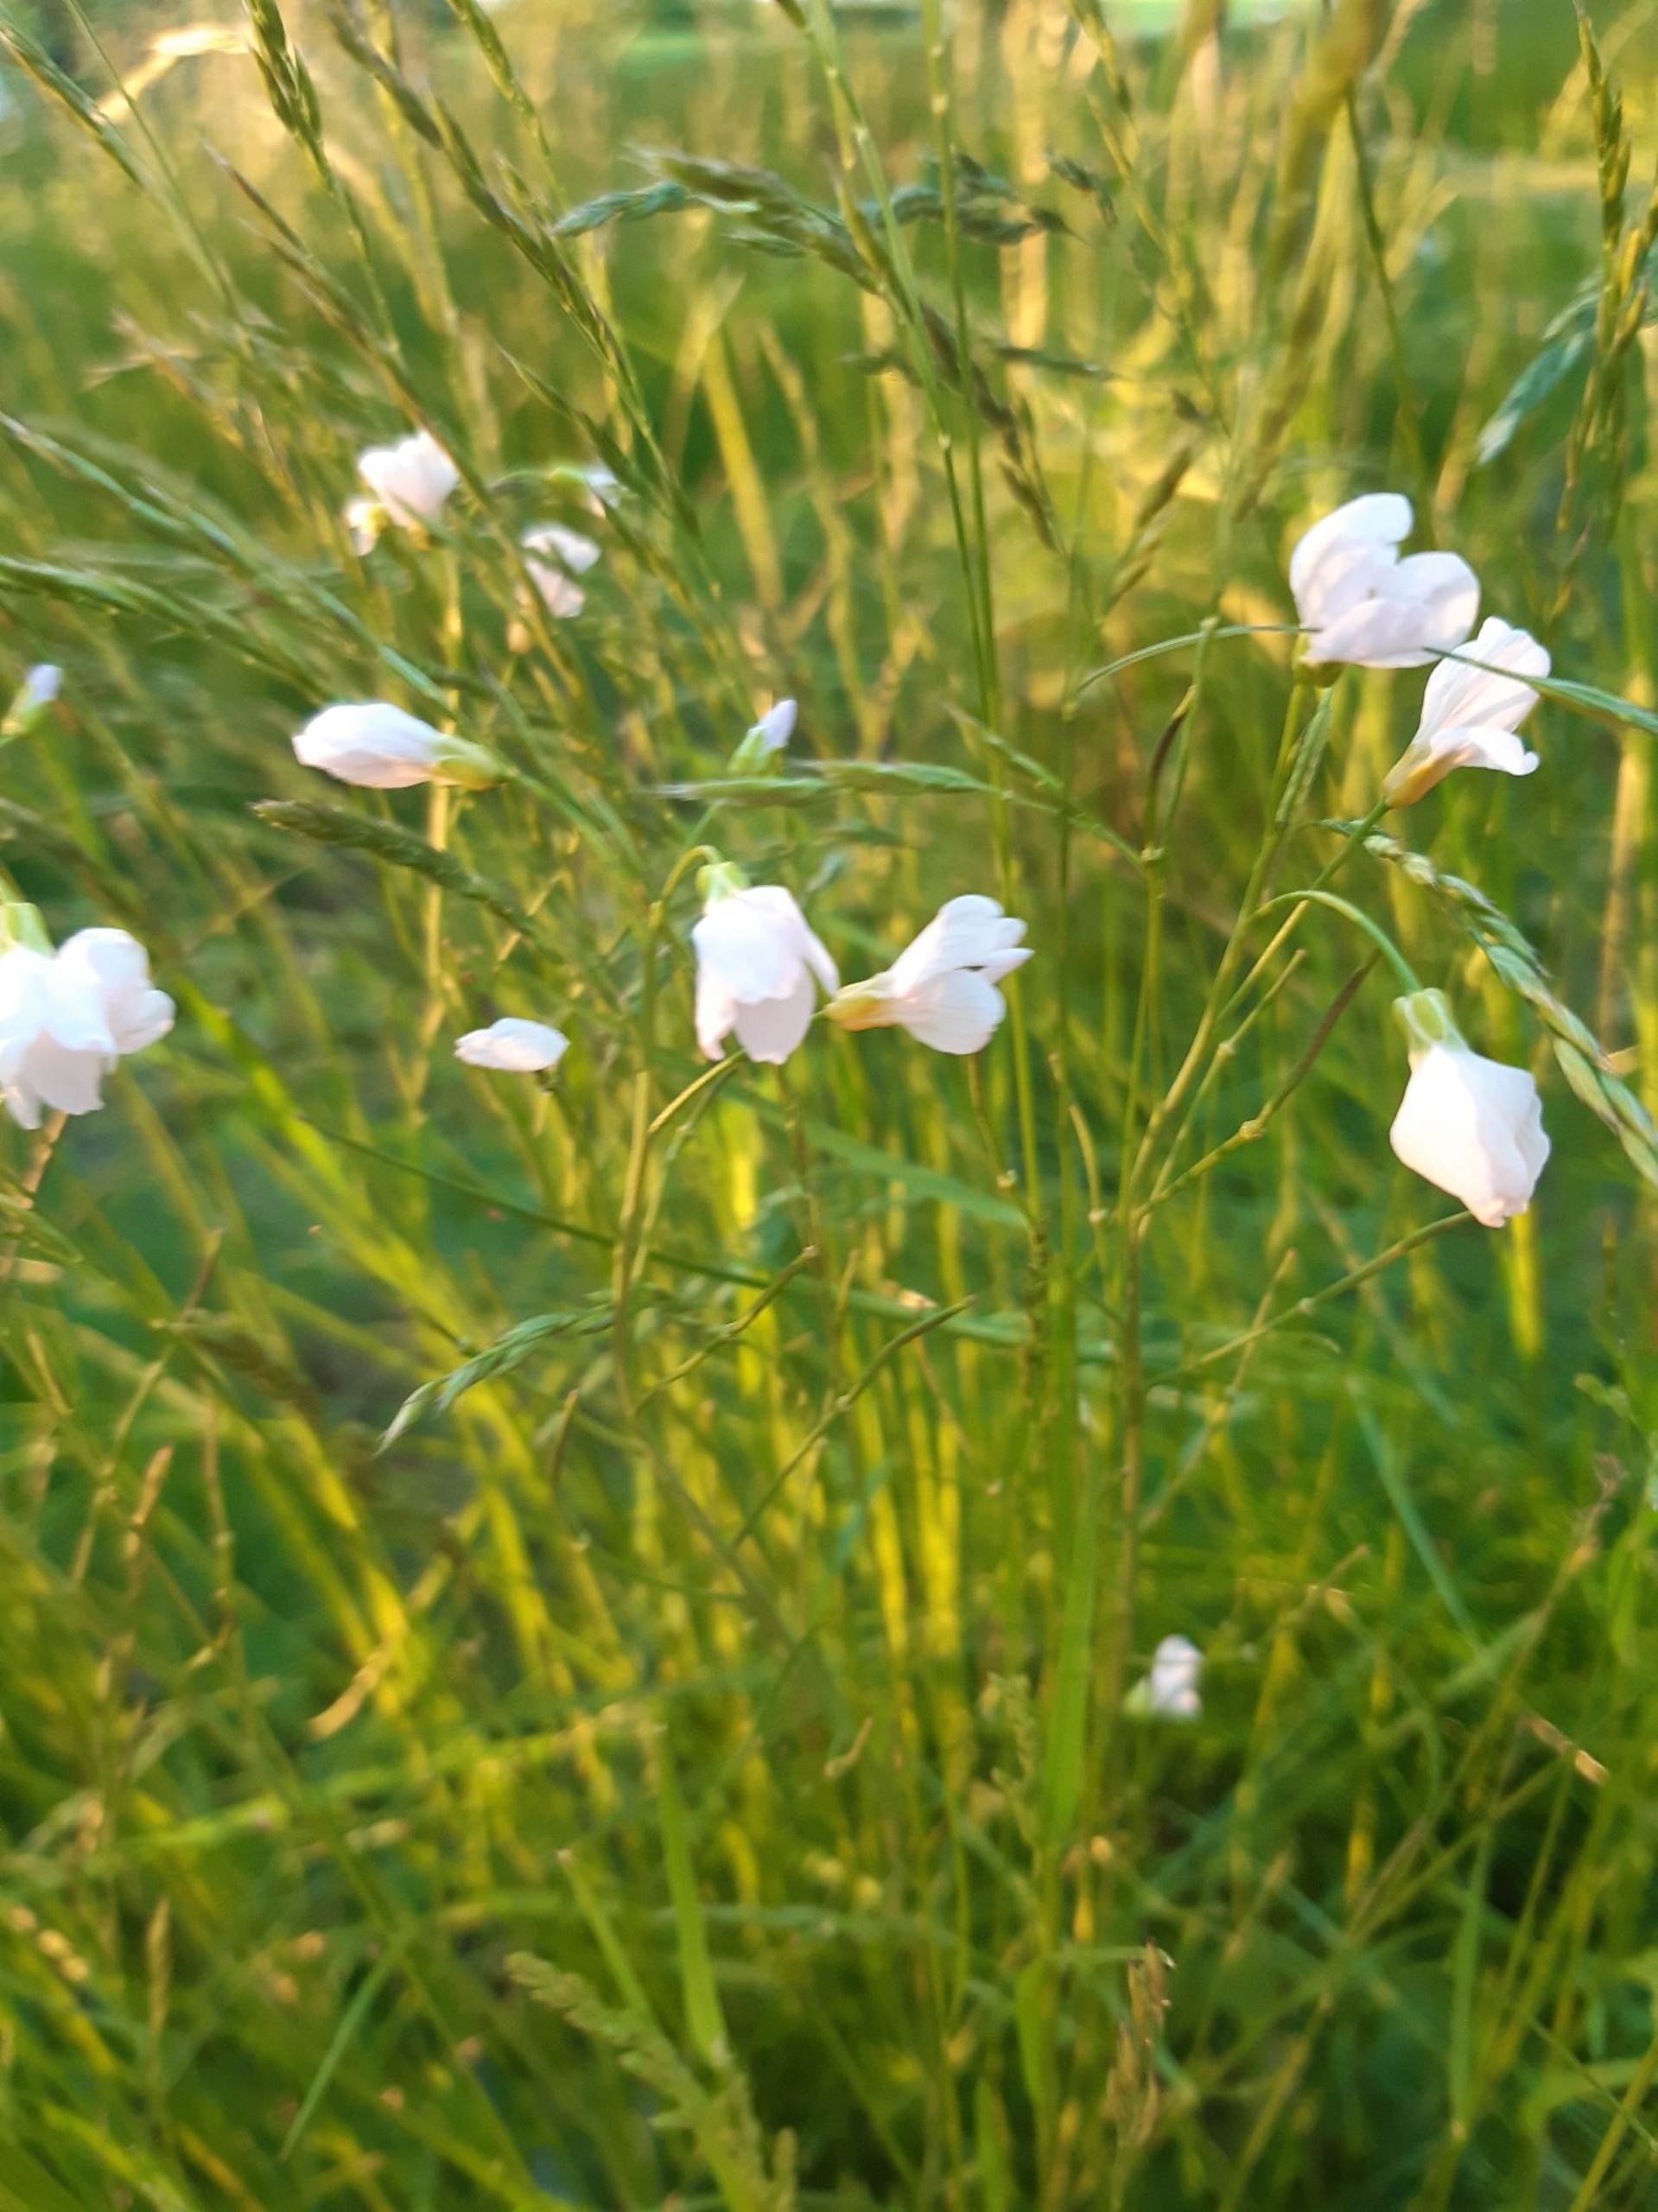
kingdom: Plantae
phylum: Tracheophyta
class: Magnoliopsida
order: Brassicales
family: Brassicaceae
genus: Cardamine
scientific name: Cardamine pratensis
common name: Engkarse
